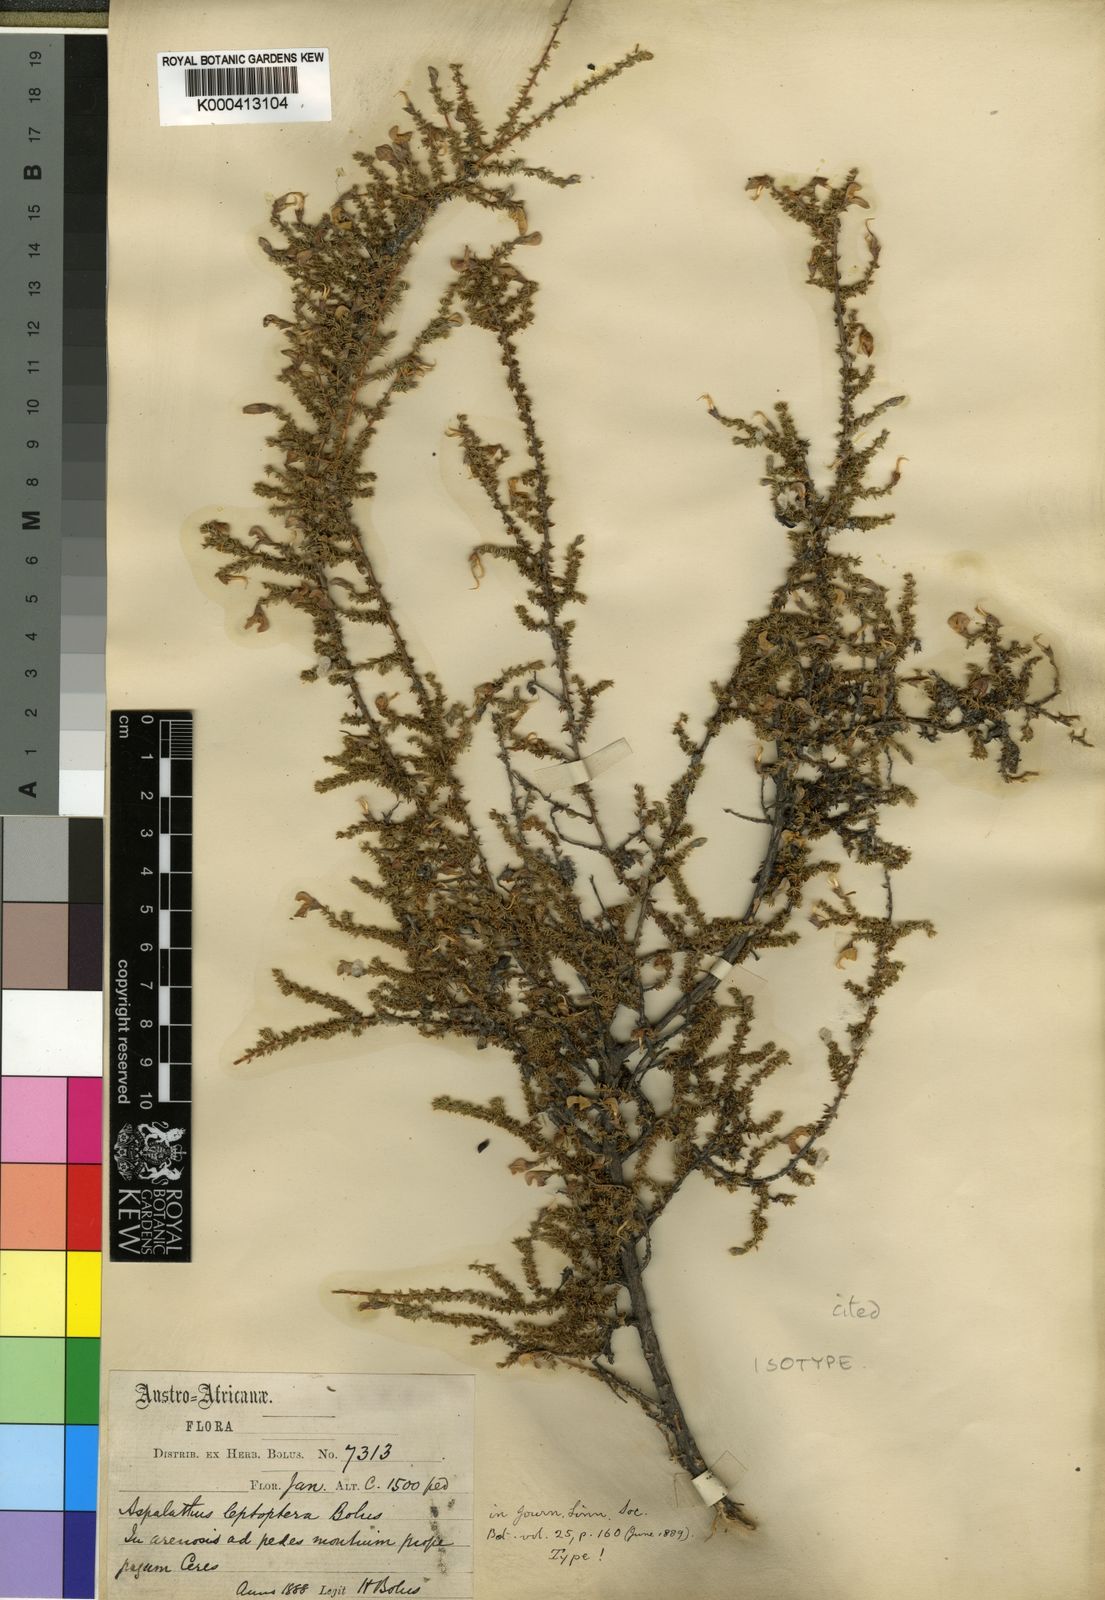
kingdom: Plantae
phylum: Tracheophyta
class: Magnoliopsida
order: Fabales
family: Fabaceae
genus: Aspalathus
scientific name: Aspalathus leptoptera
